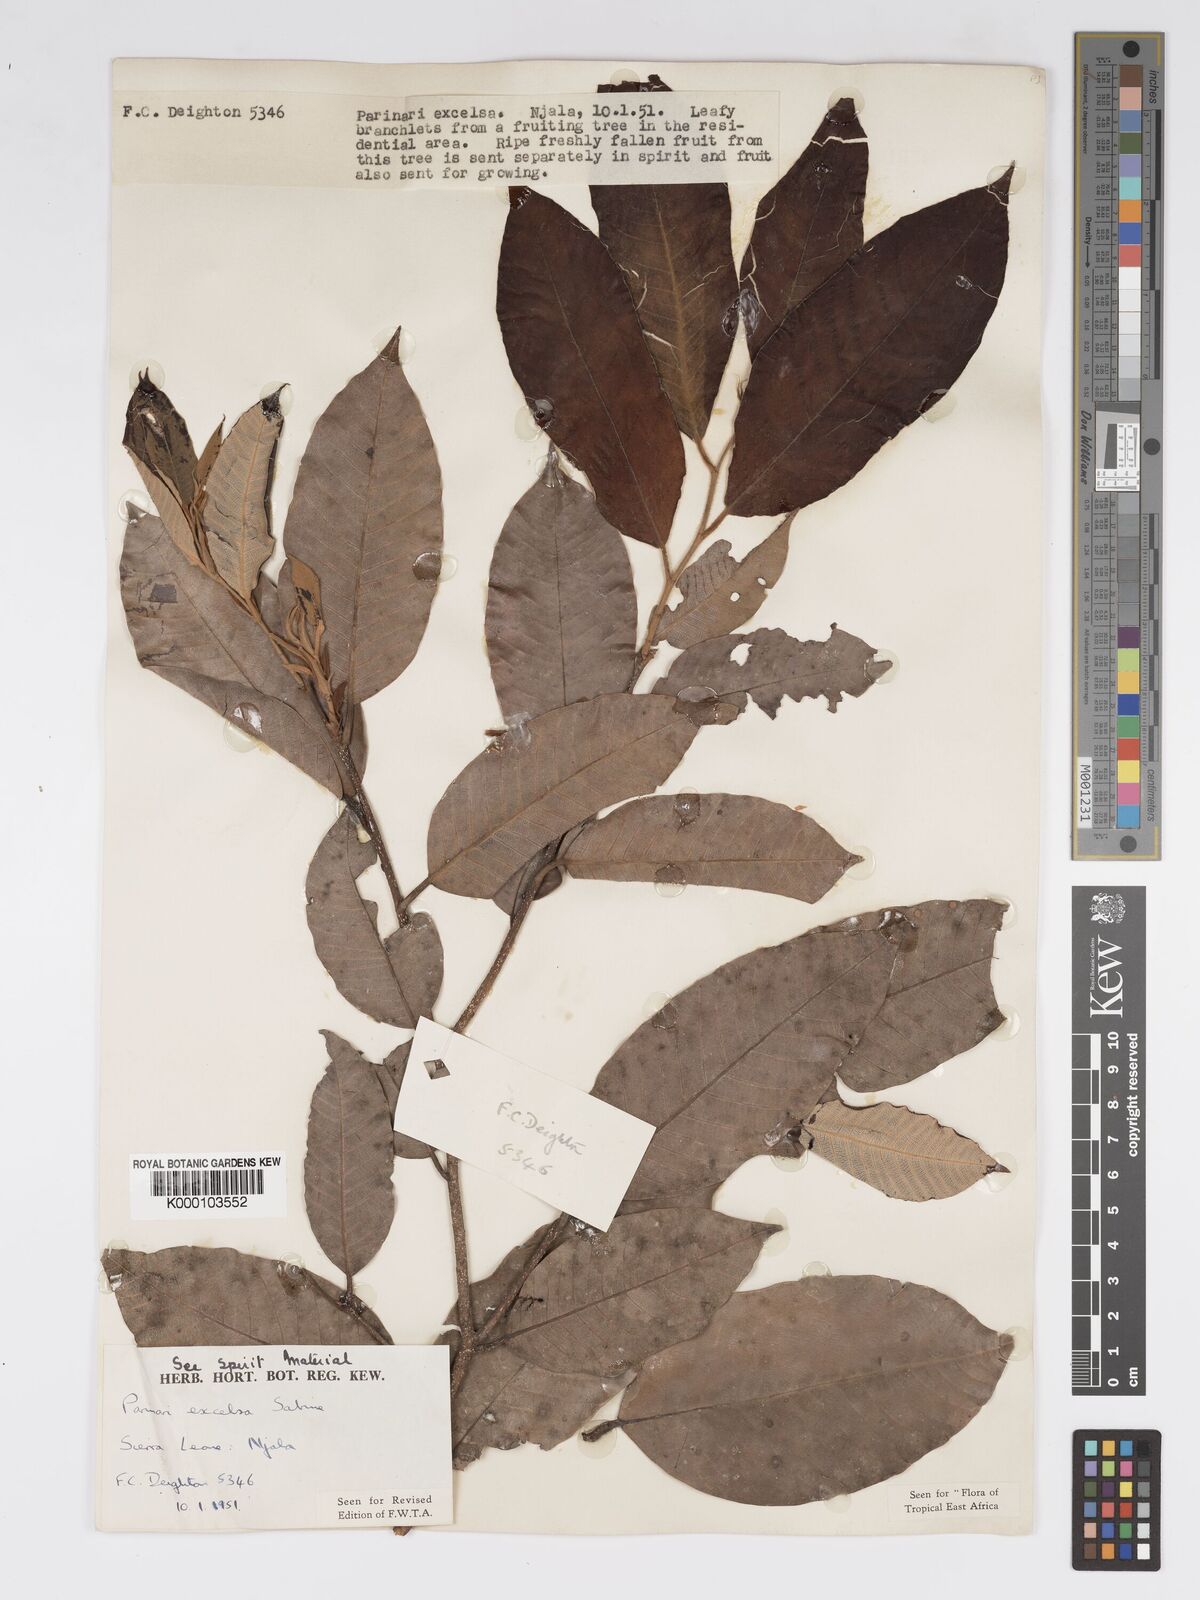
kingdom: Plantae
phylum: Tracheophyta
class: Magnoliopsida
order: Malpighiales
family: Chrysobalanaceae
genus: Parinari
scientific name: Parinari excelsa
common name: Guinea-plum
